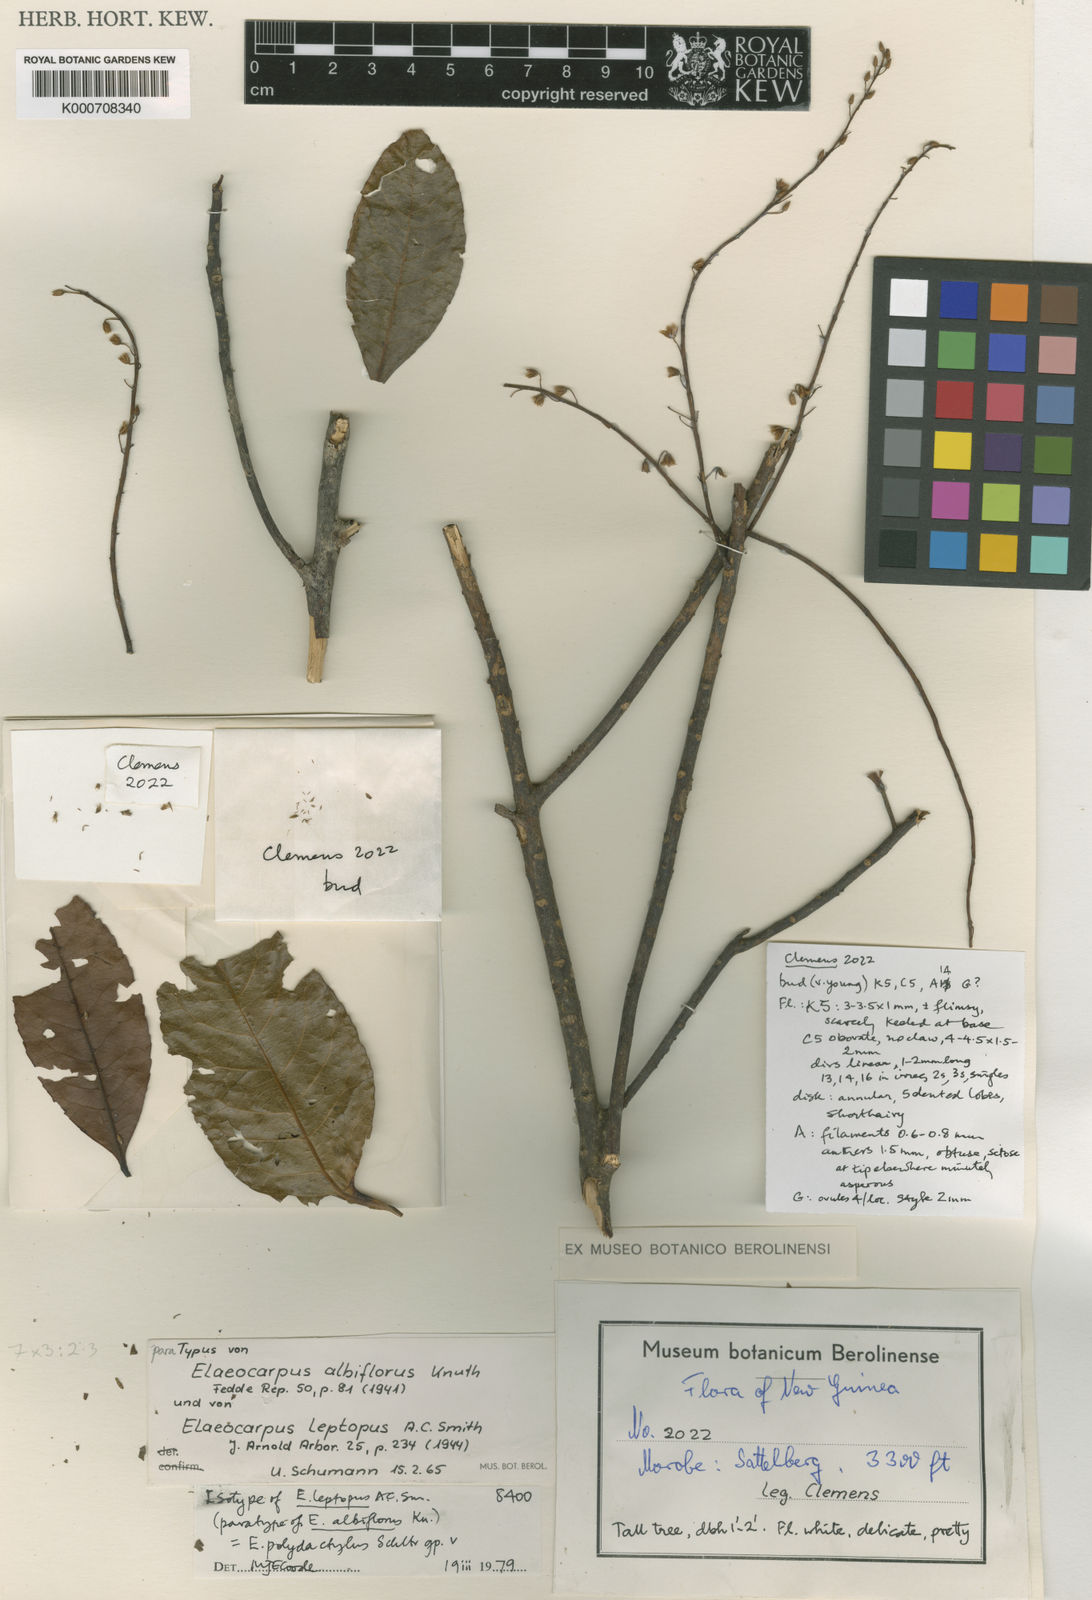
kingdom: Plantae
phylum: Tracheophyta
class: Magnoliopsida
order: Oxalidales
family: Elaeocarpaceae
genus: Elaeocarpus
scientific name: Elaeocarpus polydactylus
